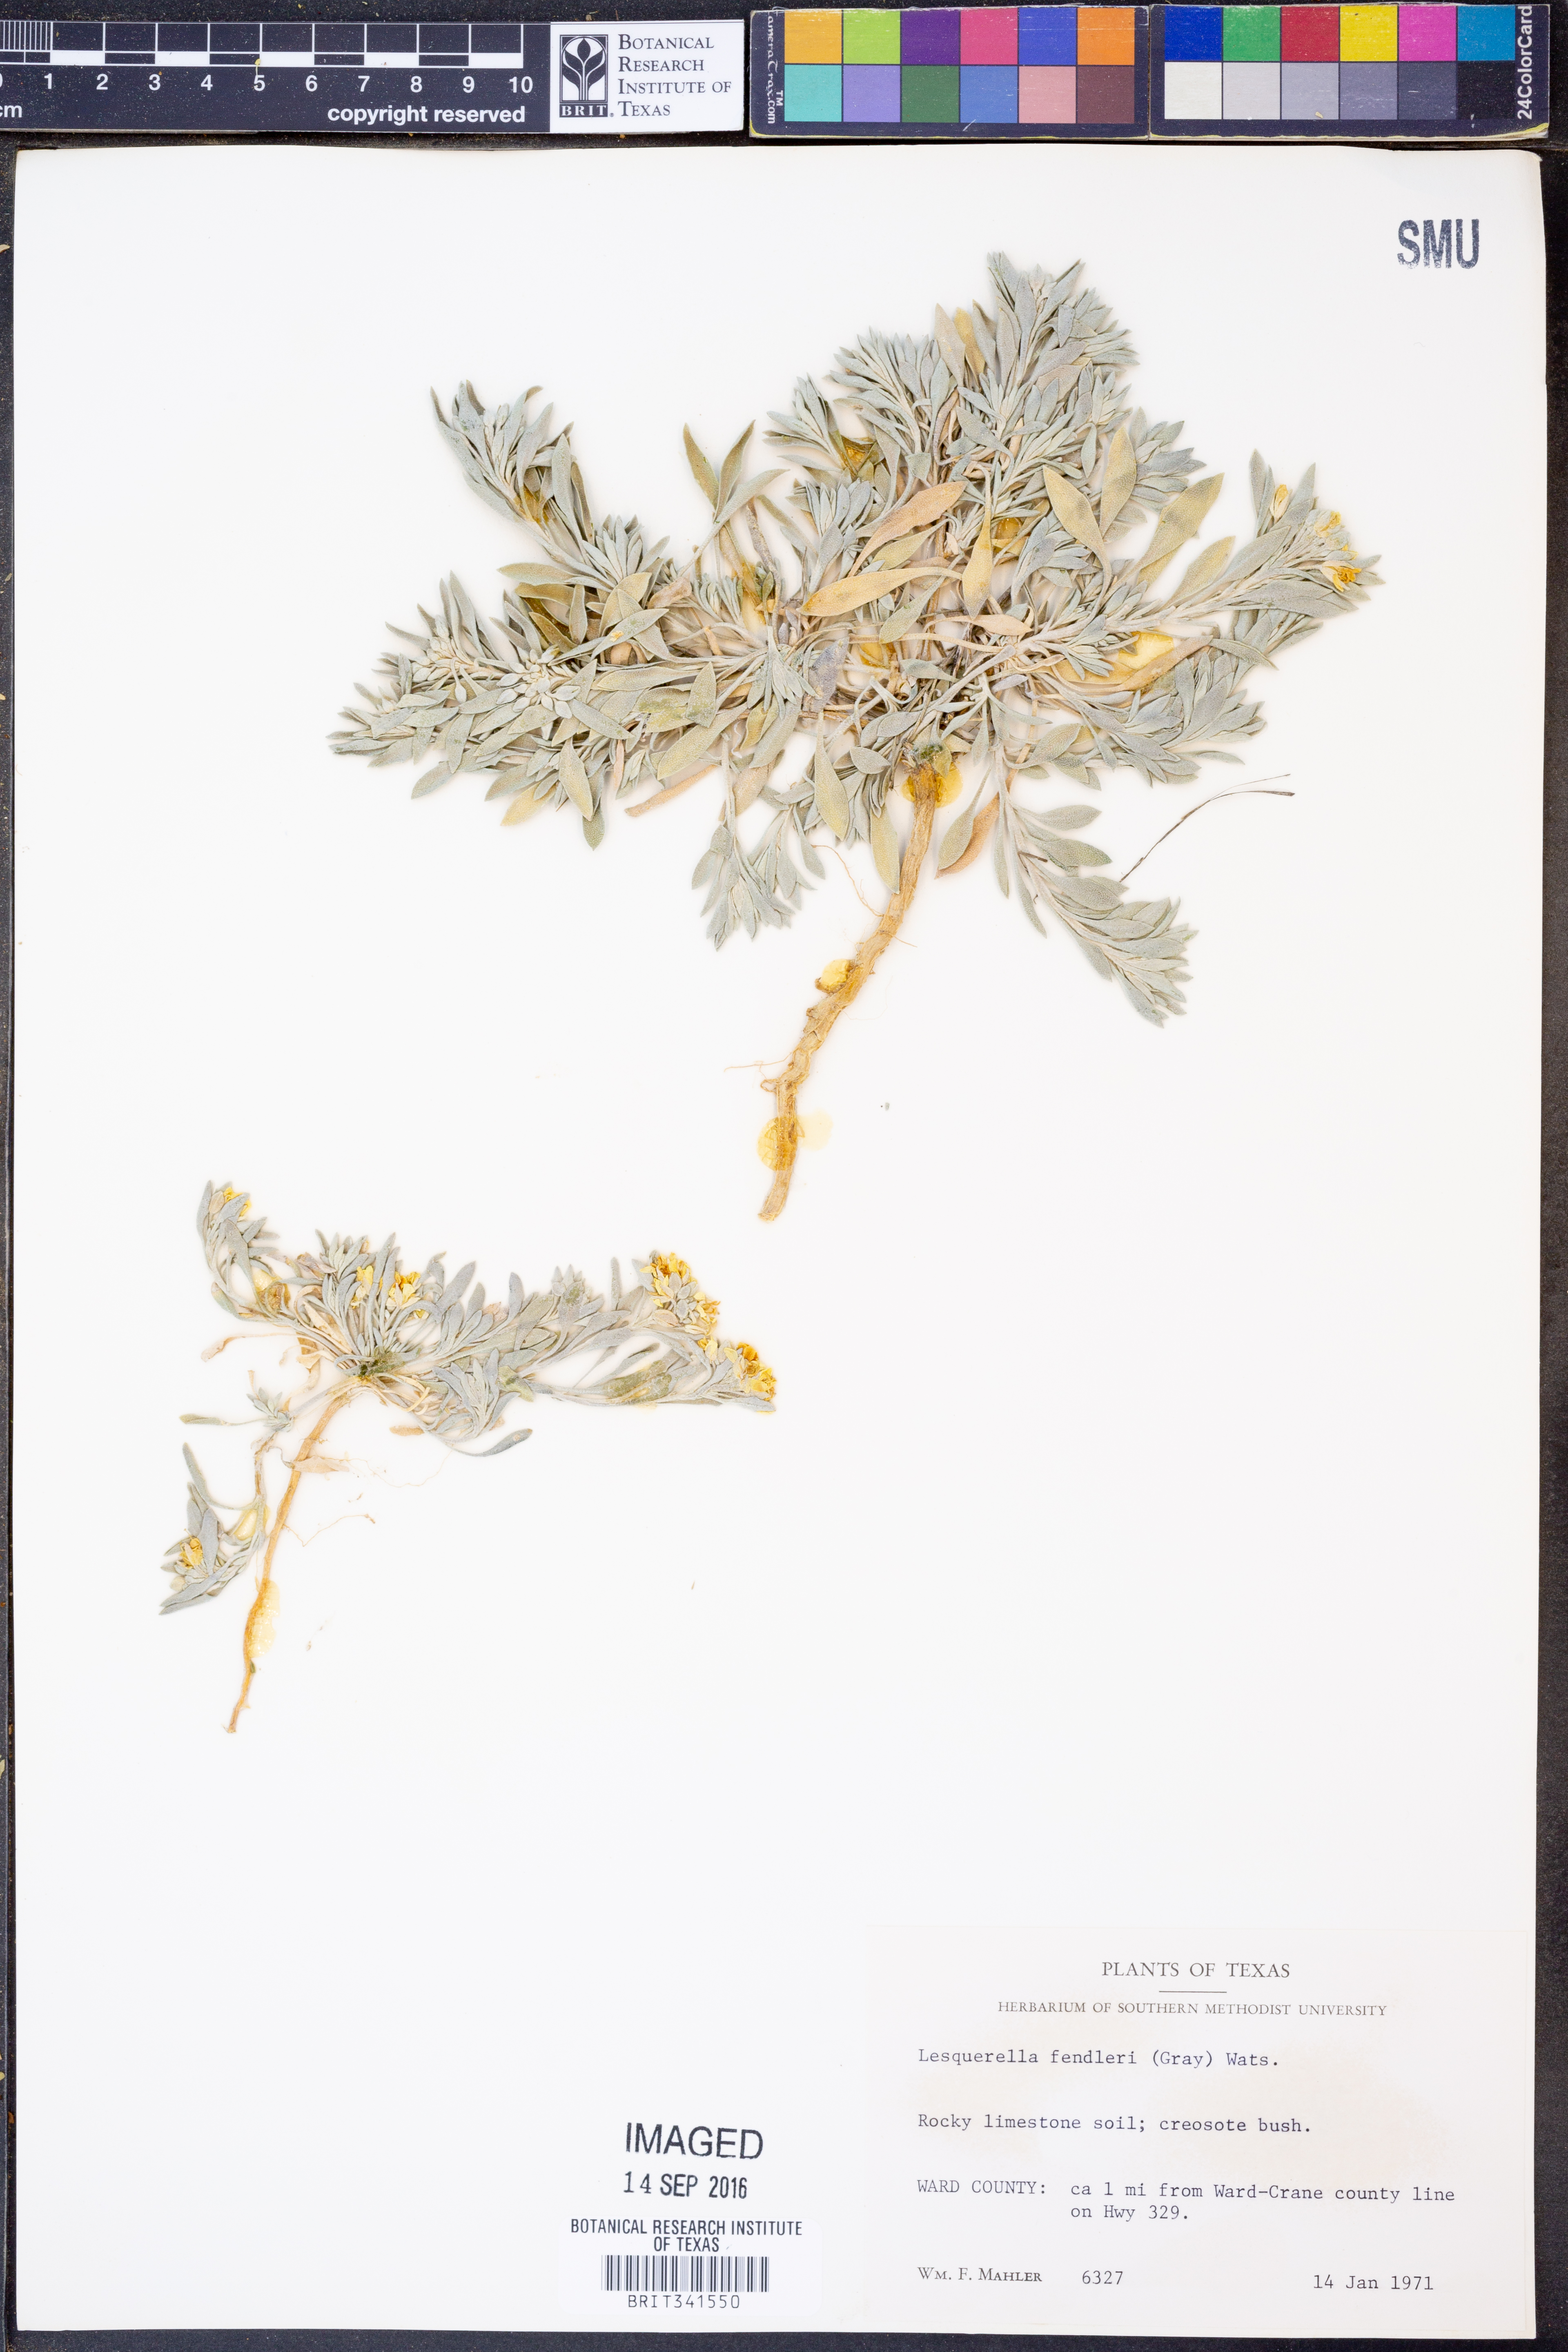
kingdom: Plantae
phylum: Tracheophyta
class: Magnoliopsida
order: Brassicales
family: Brassicaceae
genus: Physaria
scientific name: Physaria fendleri
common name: Fendler's bladderpod
